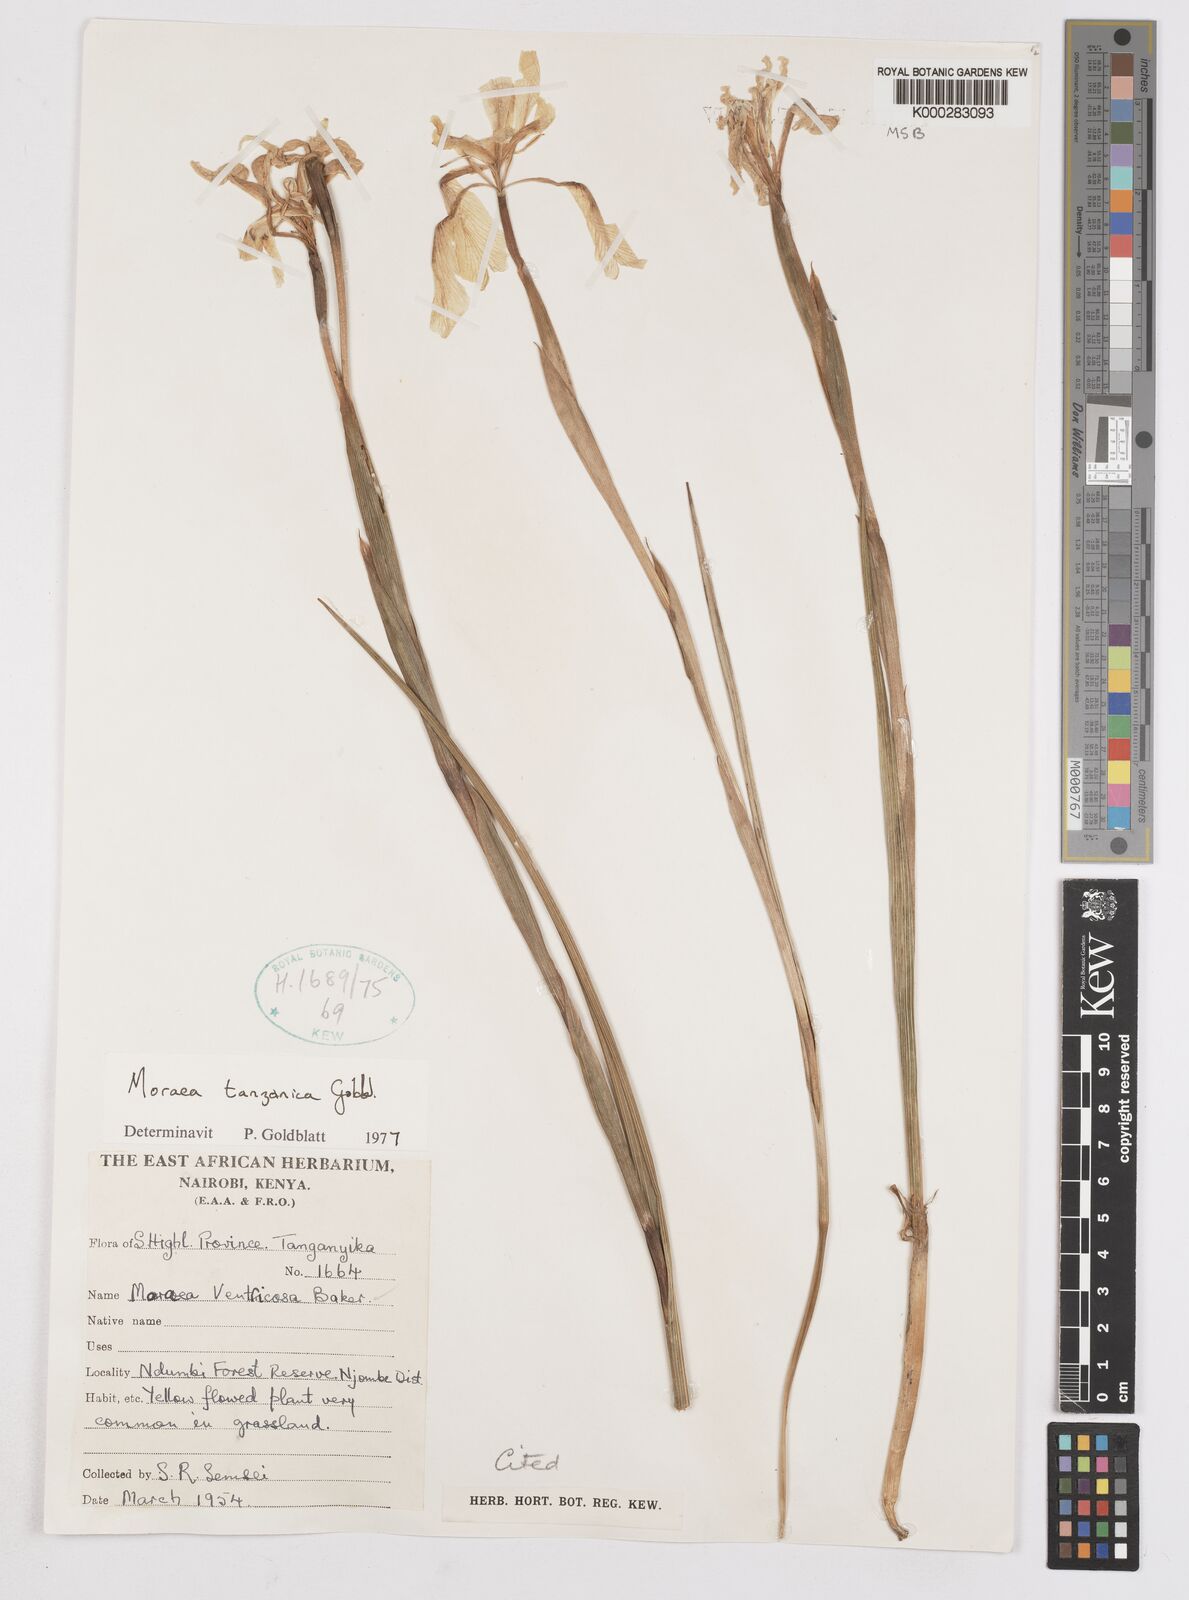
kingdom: Plantae
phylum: Tracheophyta
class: Liliopsida
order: Asparagales
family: Iridaceae
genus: Moraea
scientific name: Moraea tanzanica
